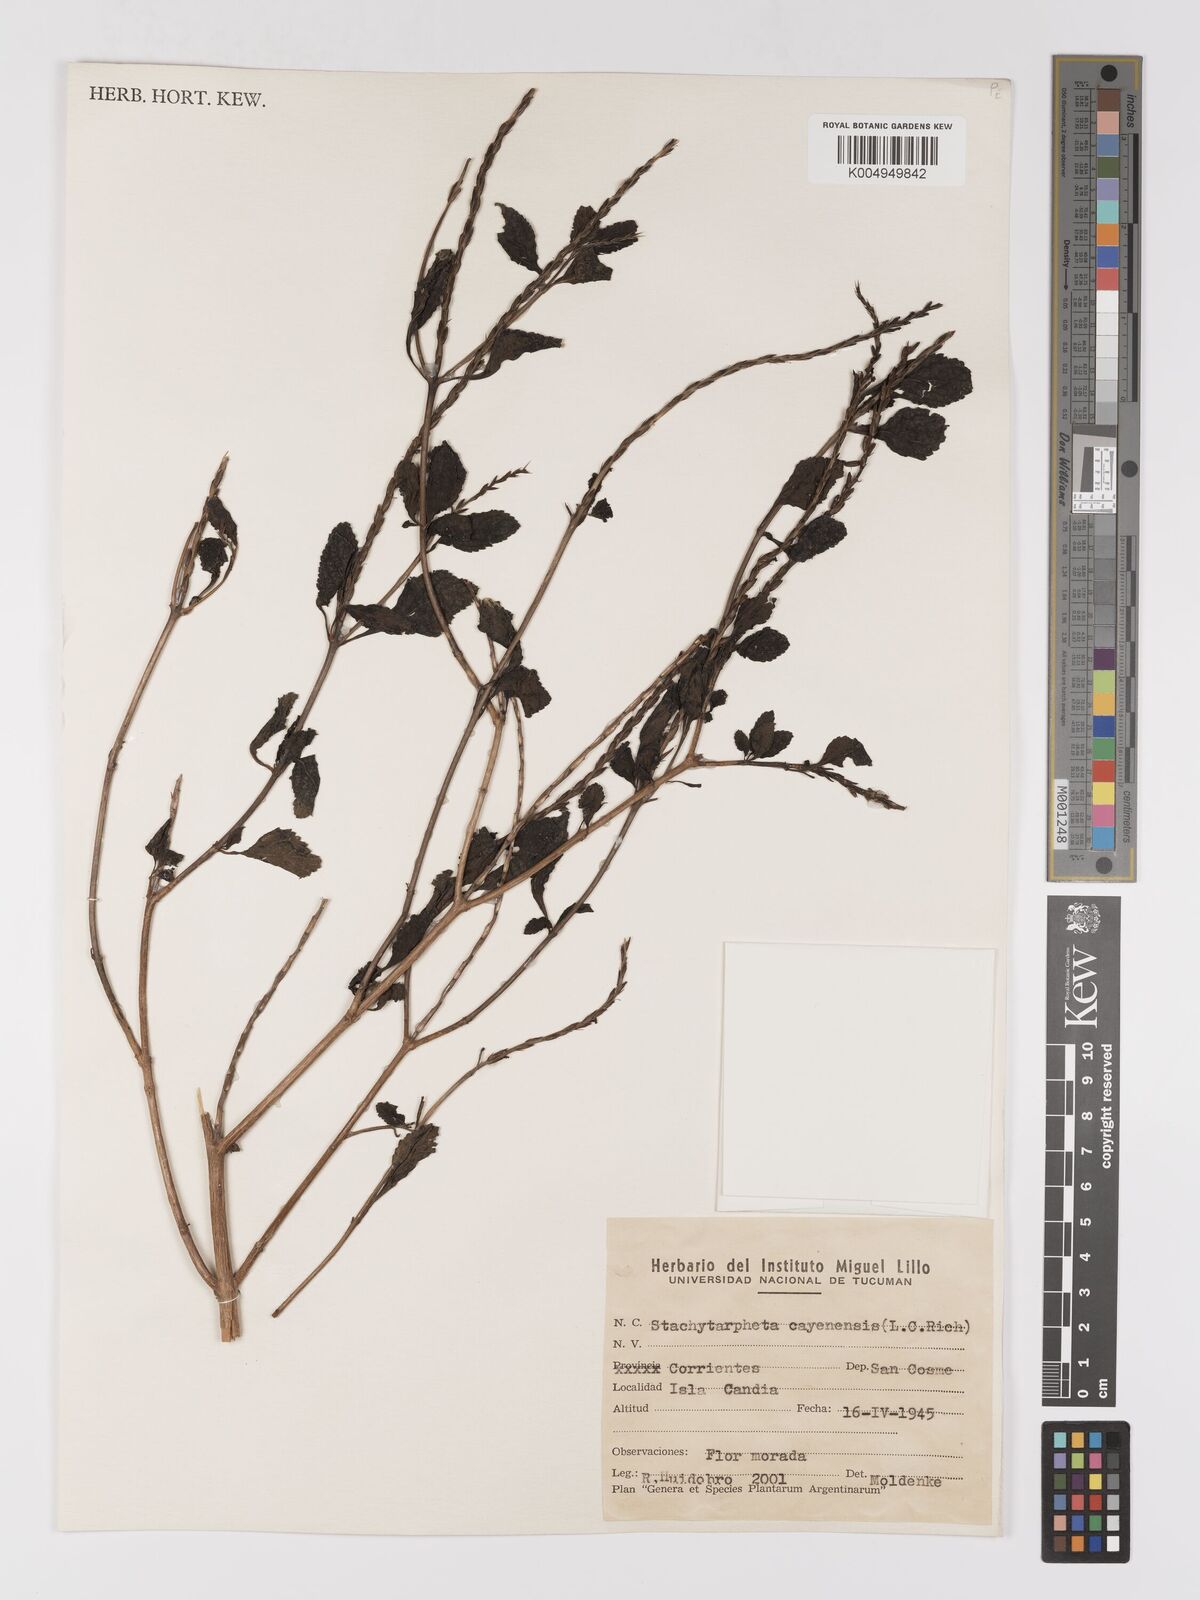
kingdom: Plantae
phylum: Tracheophyta
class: Magnoliopsida
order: Lamiales
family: Verbenaceae
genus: Stachytarpheta
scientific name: Stachytarpheta cayennensis
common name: Cayenne porterweed
